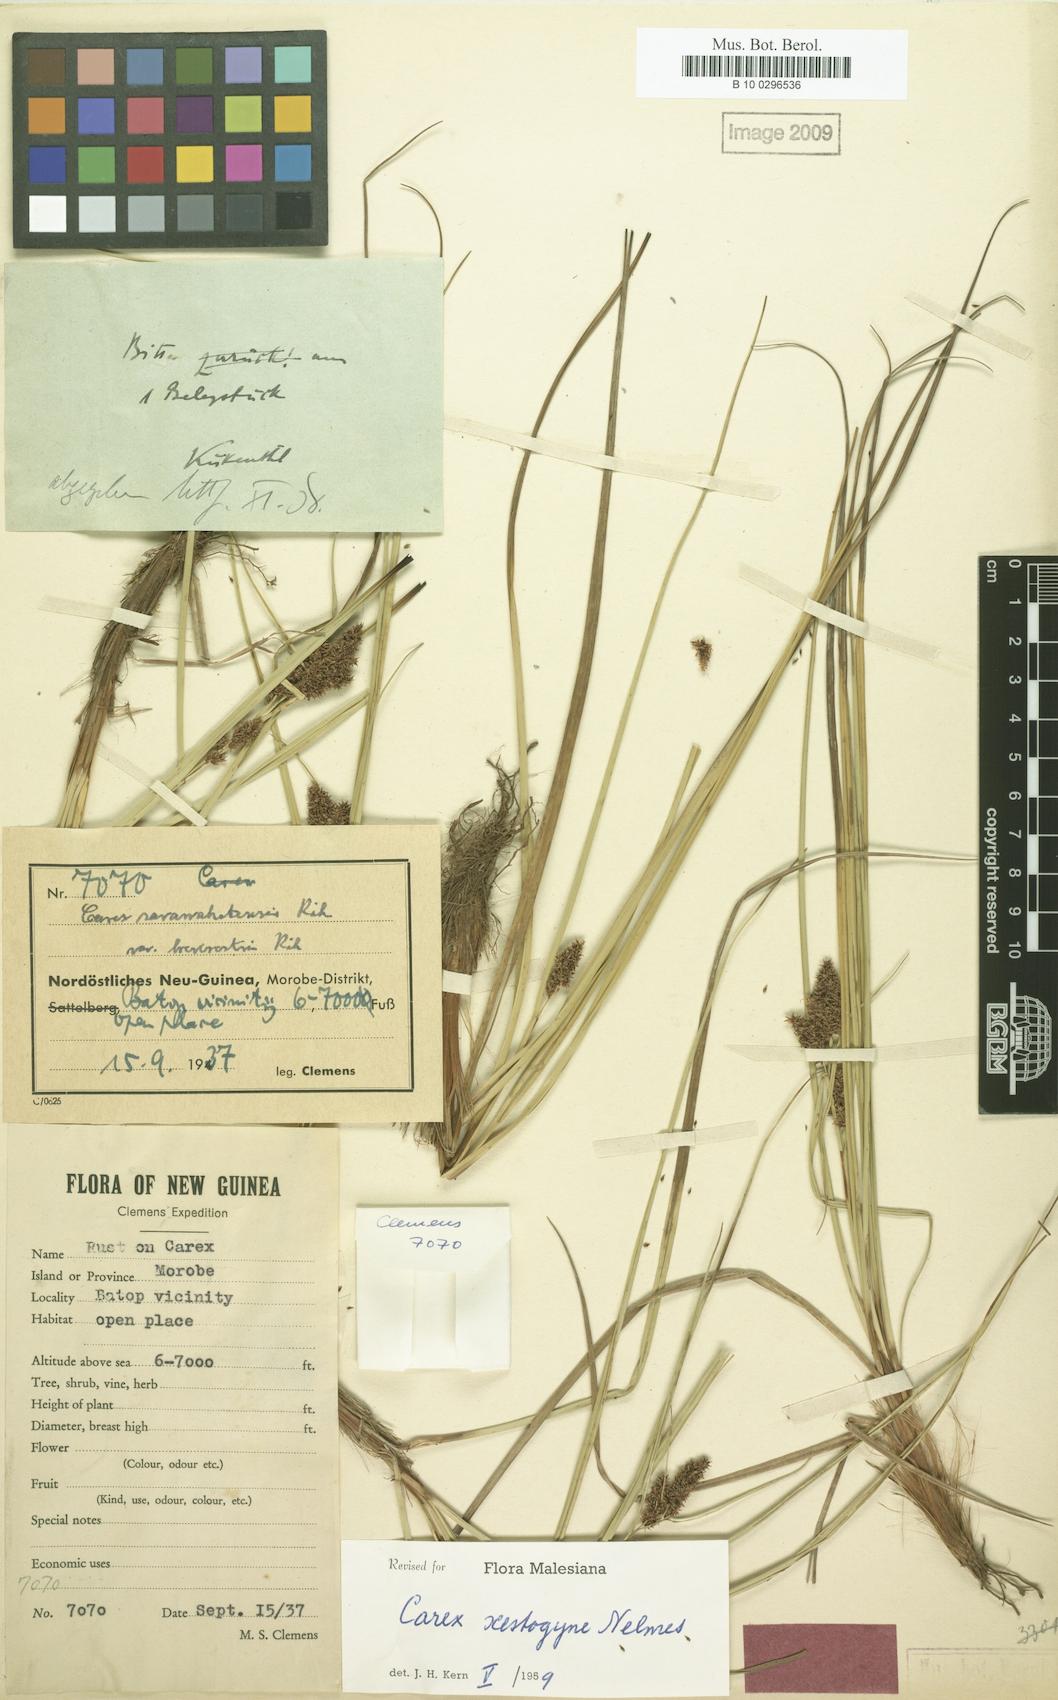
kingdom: Plantae
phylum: Tracheophyta
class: Liliopsida
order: Poales
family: Cyperaceae
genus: Carex
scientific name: Carex rafflesiana
